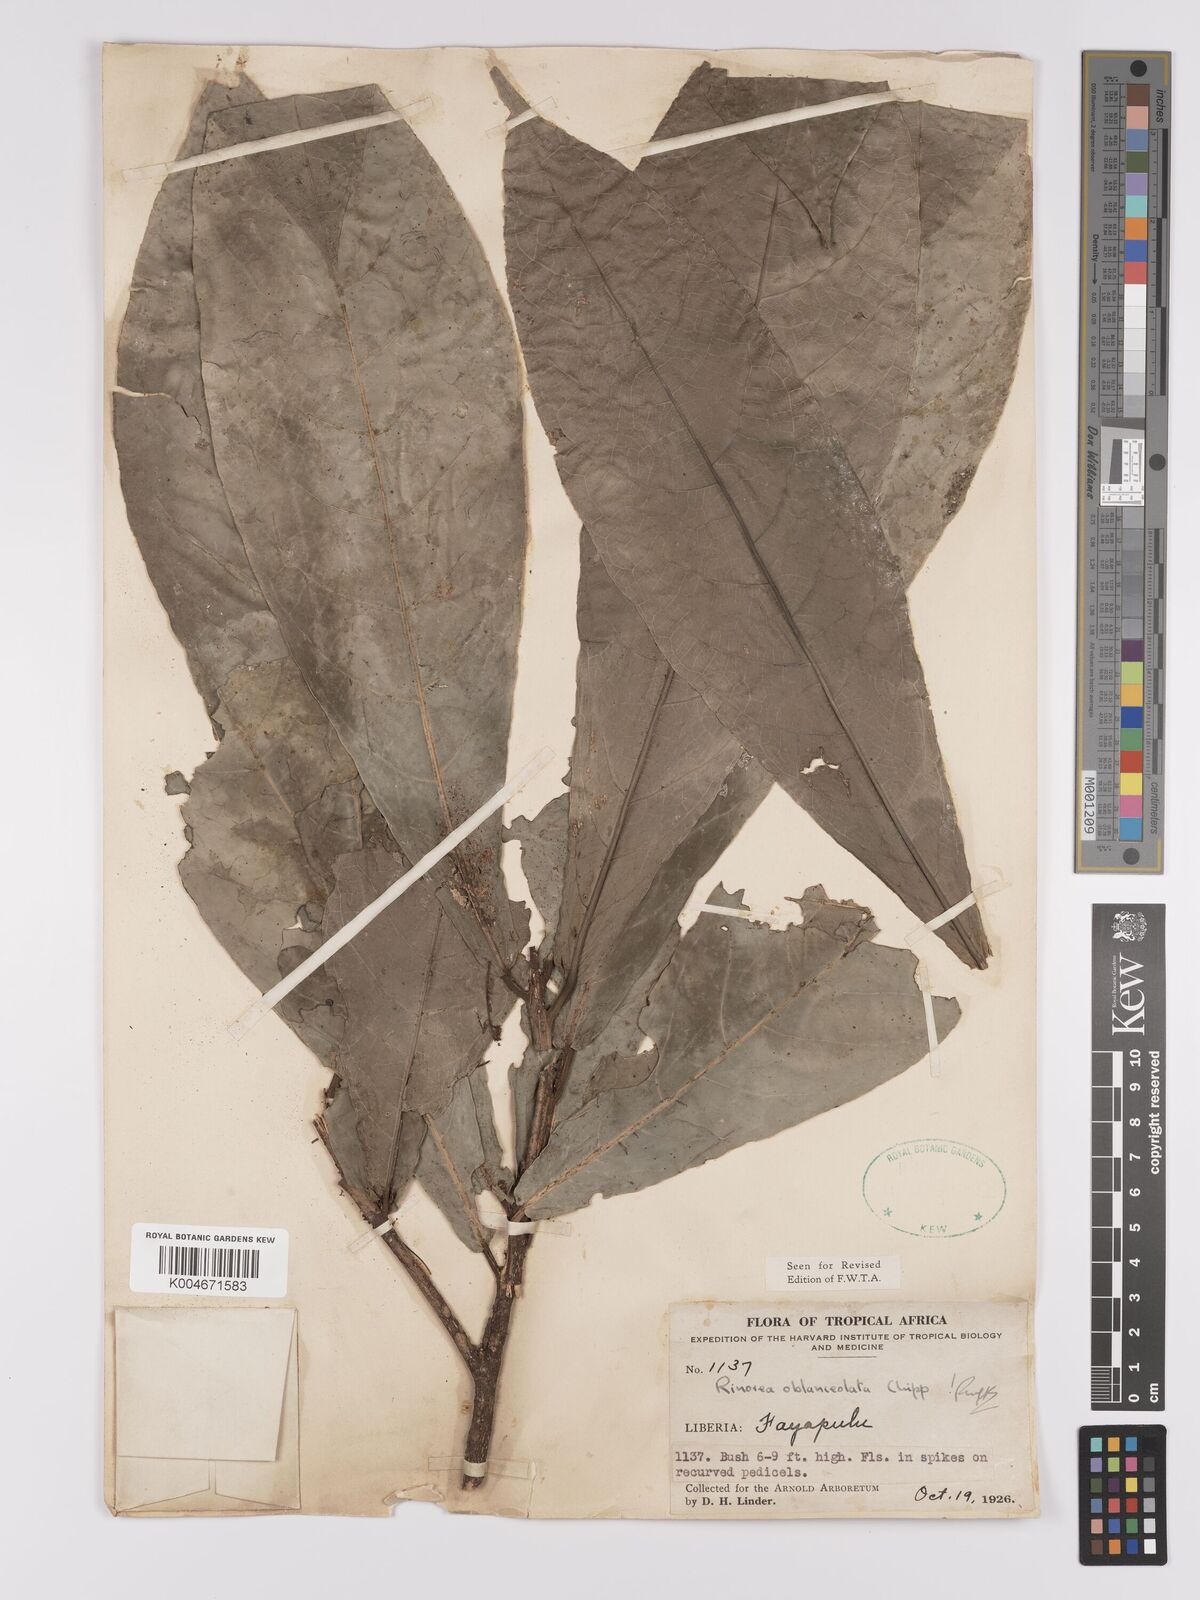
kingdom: Plantae
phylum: Tracheophyta
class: Magnoliopsida
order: Malpighiales
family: Violaceae
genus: Rinorea
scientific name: Rinorea oblanceolata
